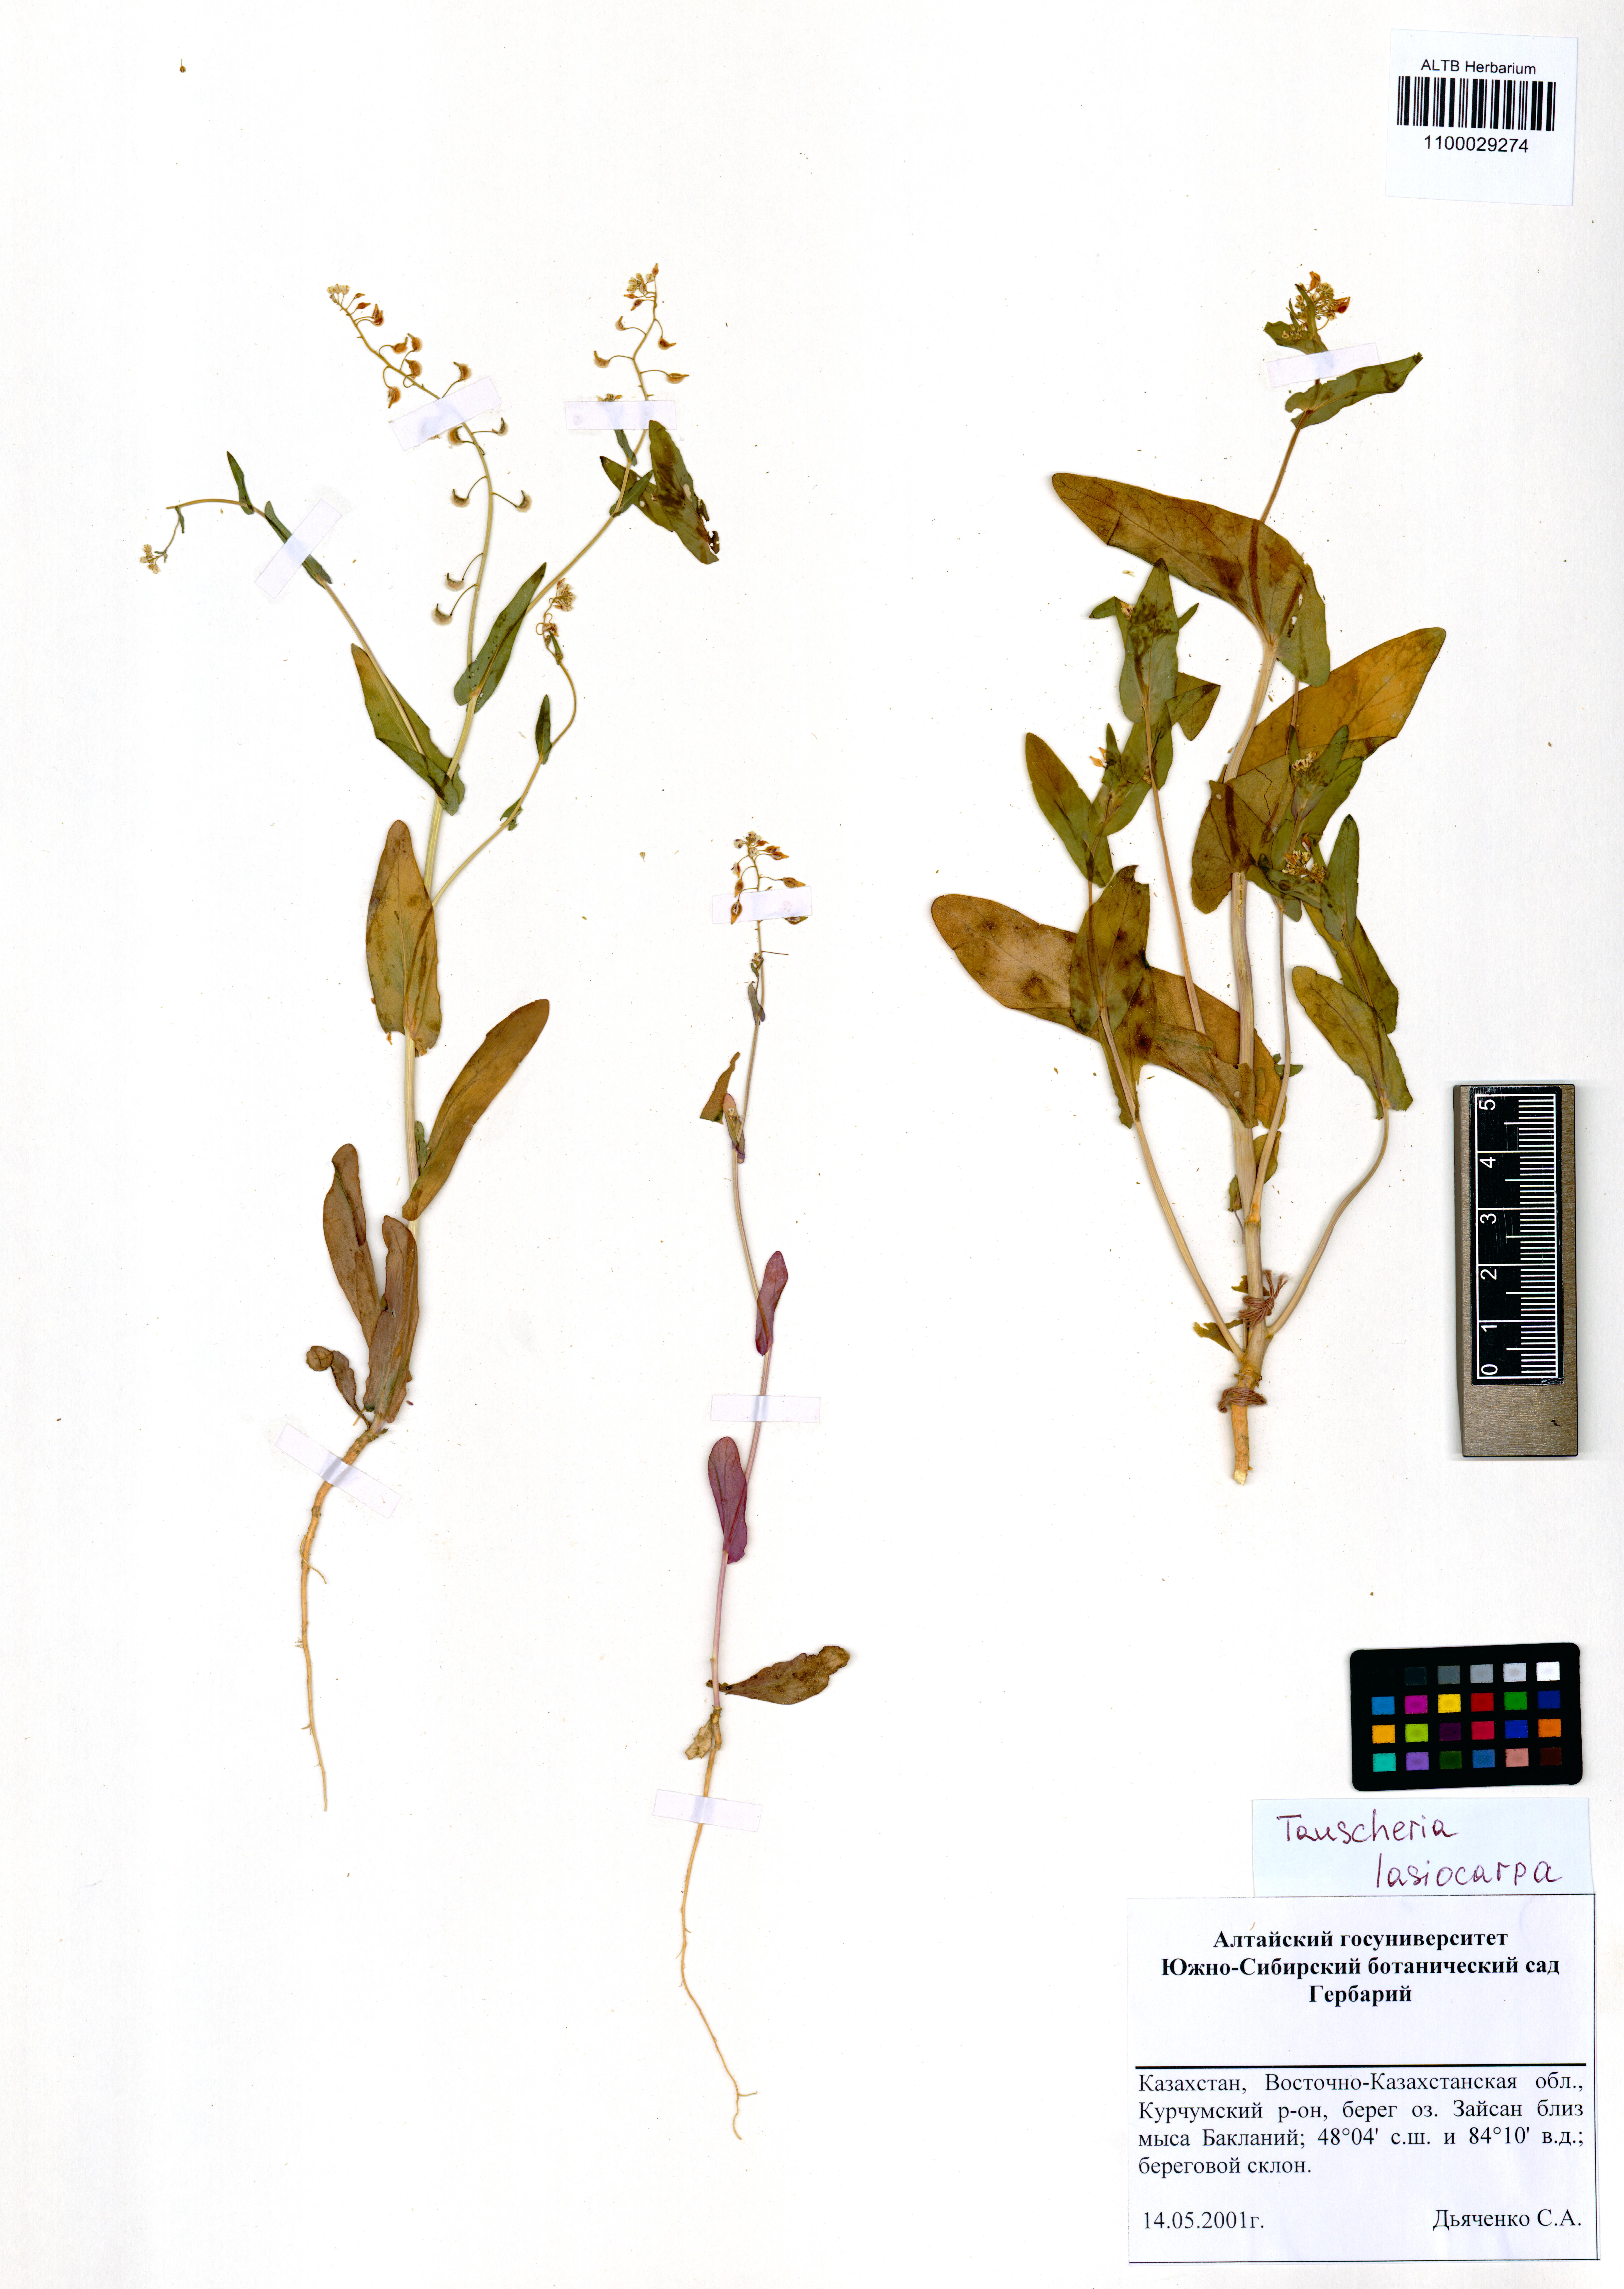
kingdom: Plantae
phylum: Tracheophyta
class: Magnoliopsida
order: Brassicales
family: Brassicaceae
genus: Tauscheria
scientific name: Tauscheria lasiocarpa
